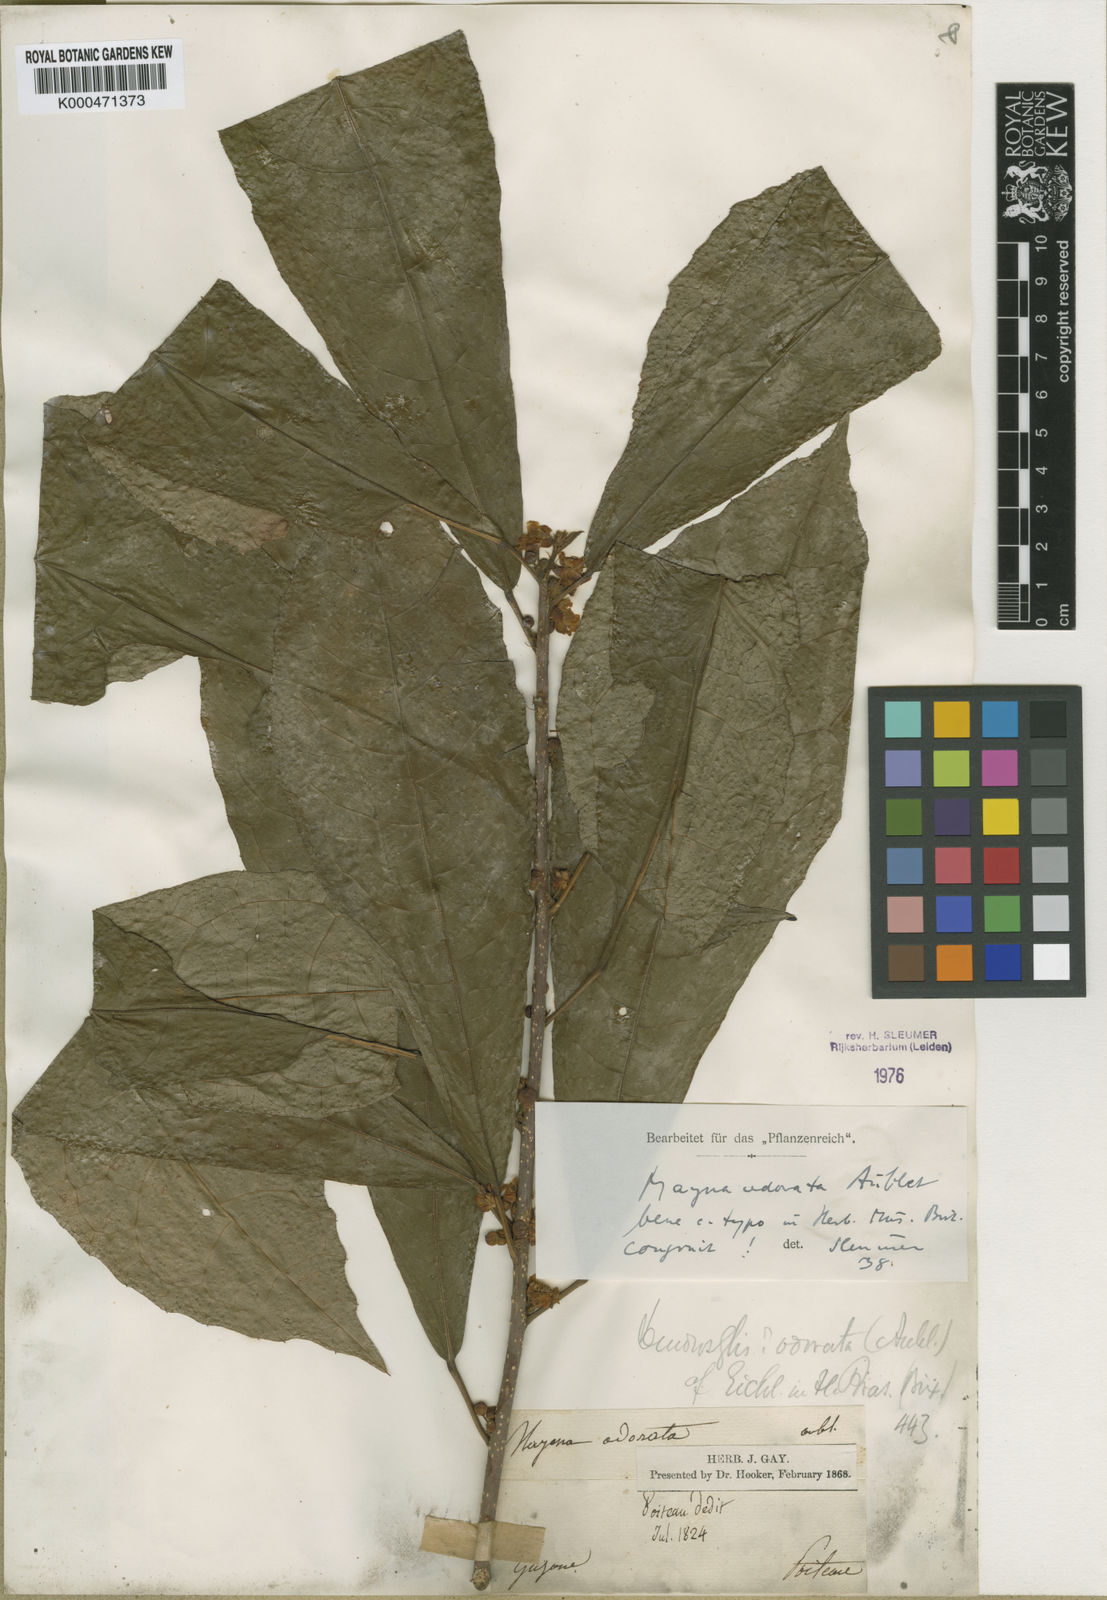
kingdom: Plantae
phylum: Tracheophyta
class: Magnoliopsida
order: Malpighiales
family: Achariaceae
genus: Mayna
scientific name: Mayna odorata
